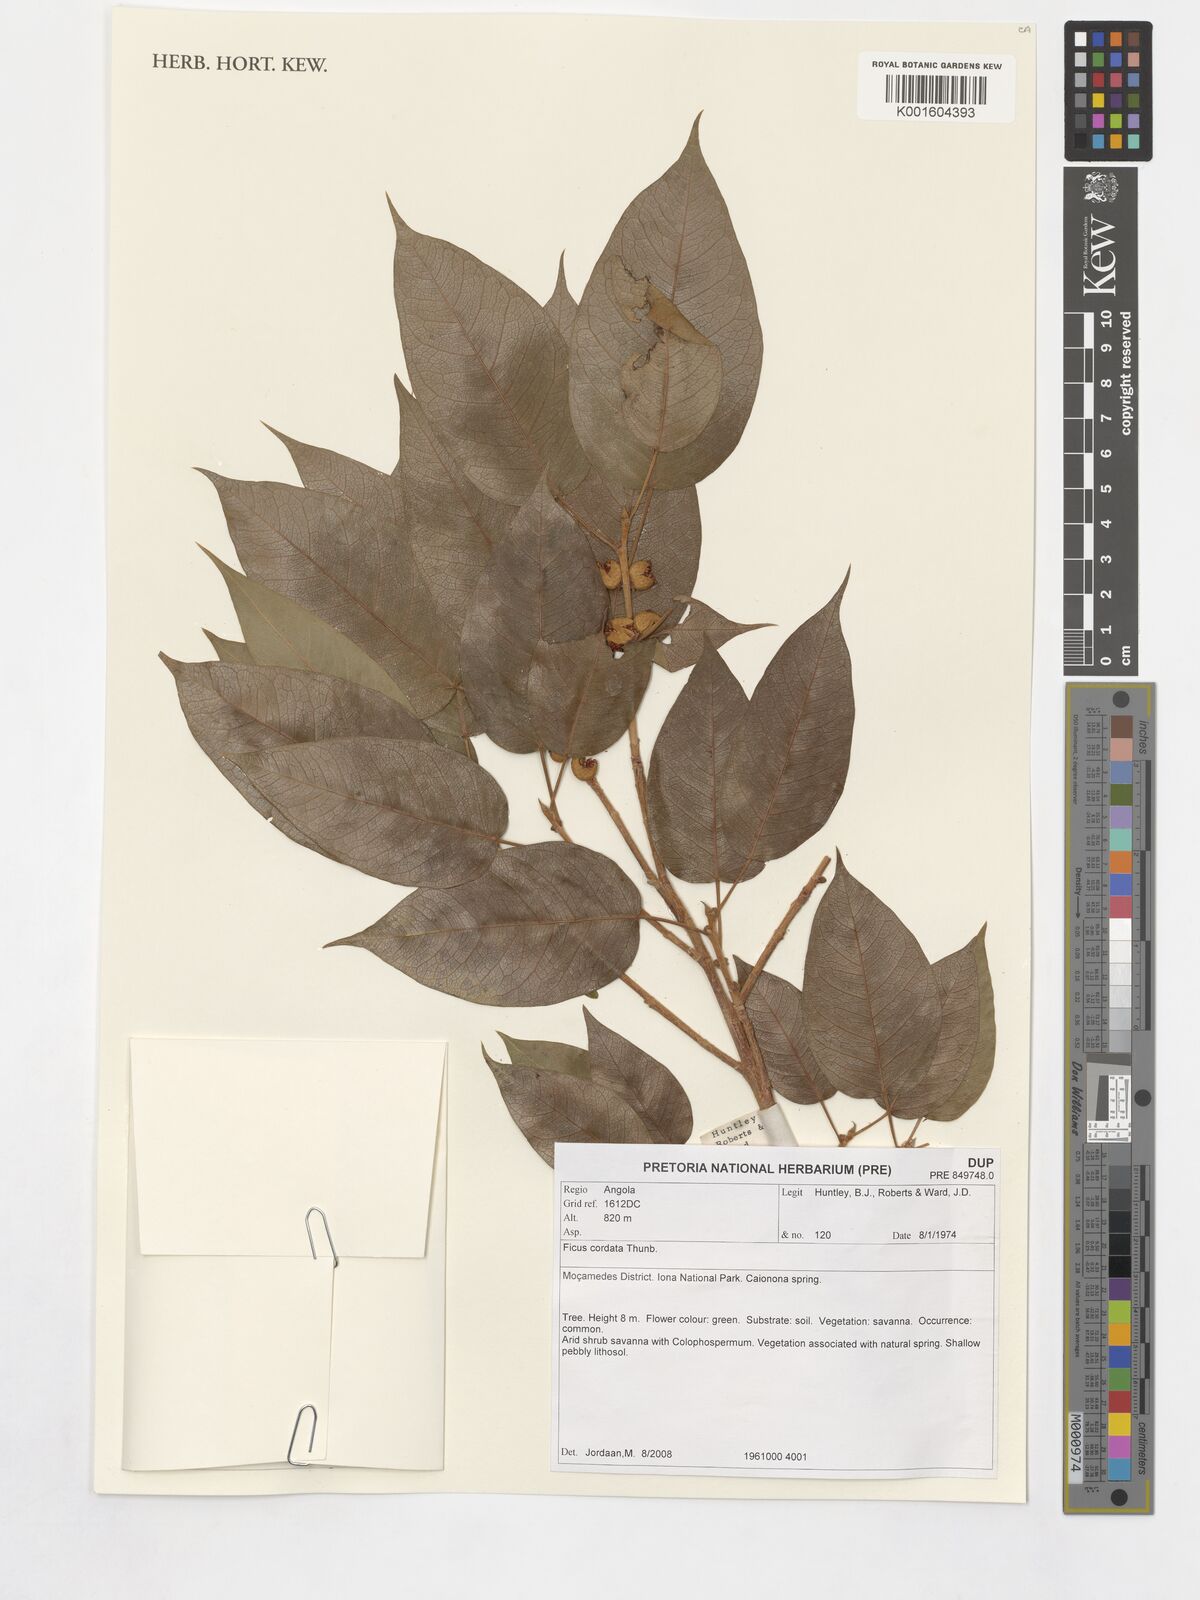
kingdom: Plantae
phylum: Tracheophyta
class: Magnoliopsida
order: Rosales
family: Moraceae
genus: Ficus
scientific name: Ficus cordata
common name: Namaqua rock fig
